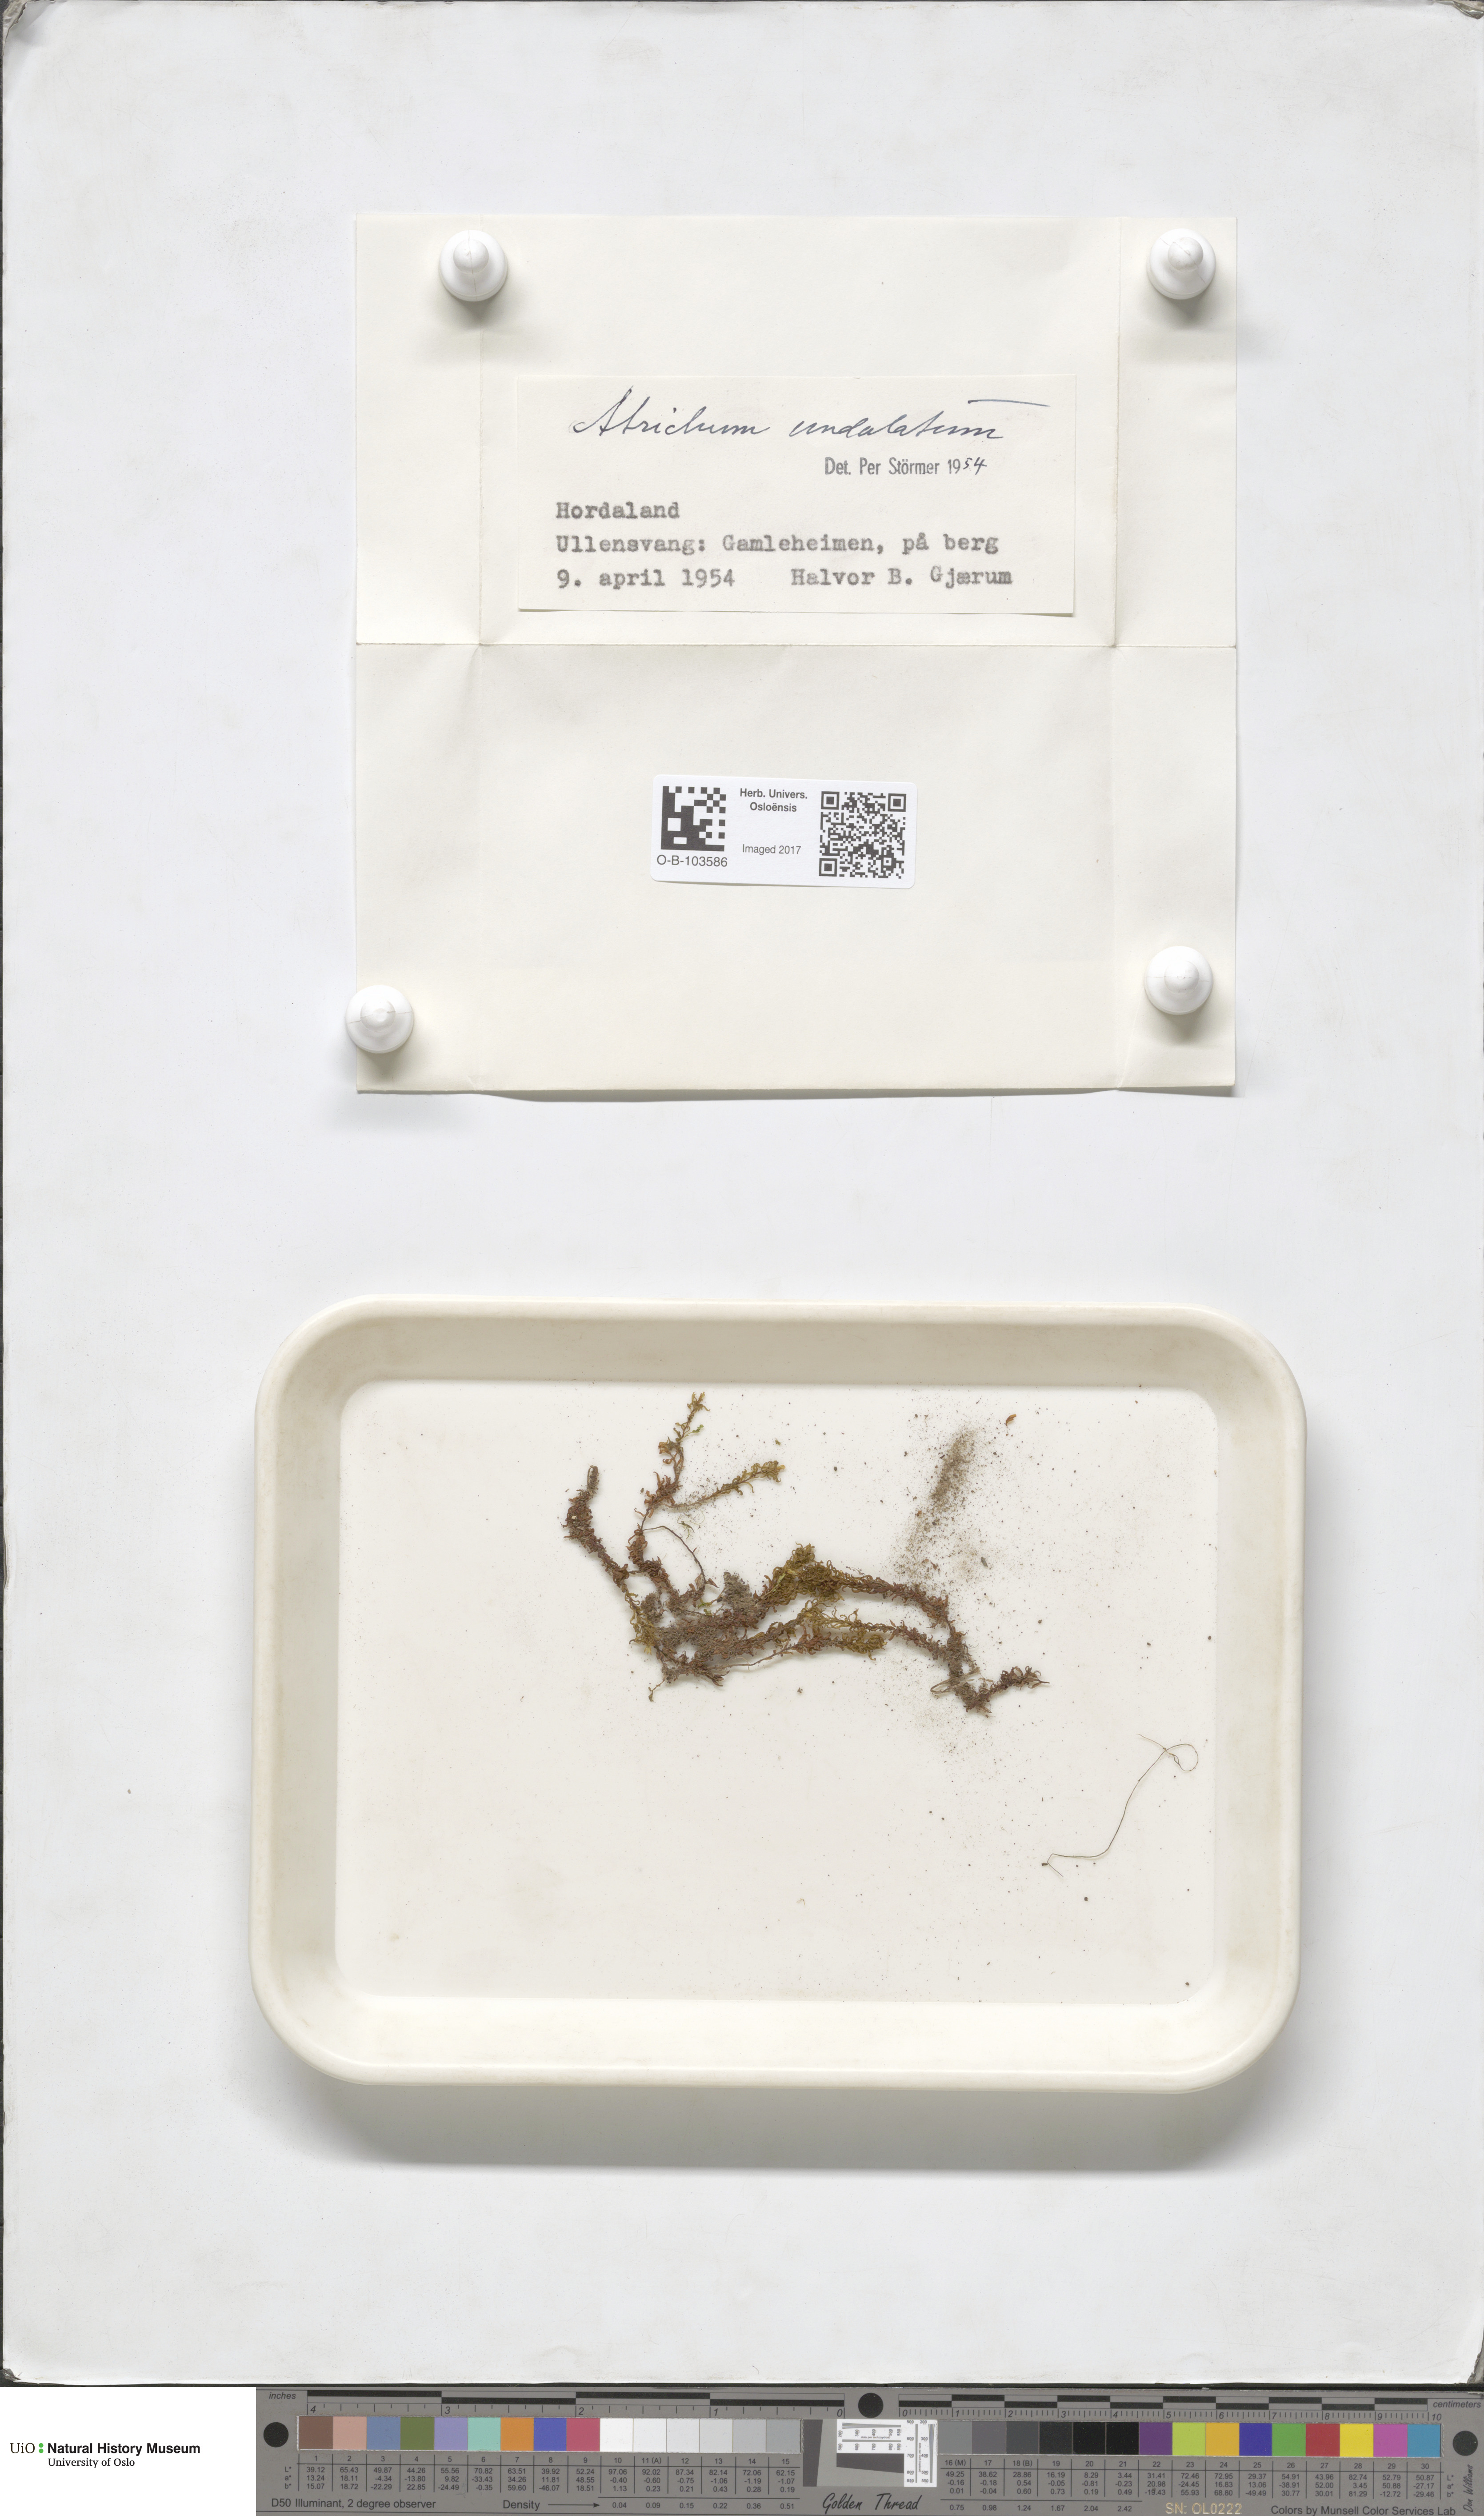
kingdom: Plantae
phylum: Bryophyta
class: Polytrichopsida
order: Polytrichales
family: Polytrichaceae
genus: Atrichum
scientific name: Atrichum undulatum
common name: Common smoothcap
